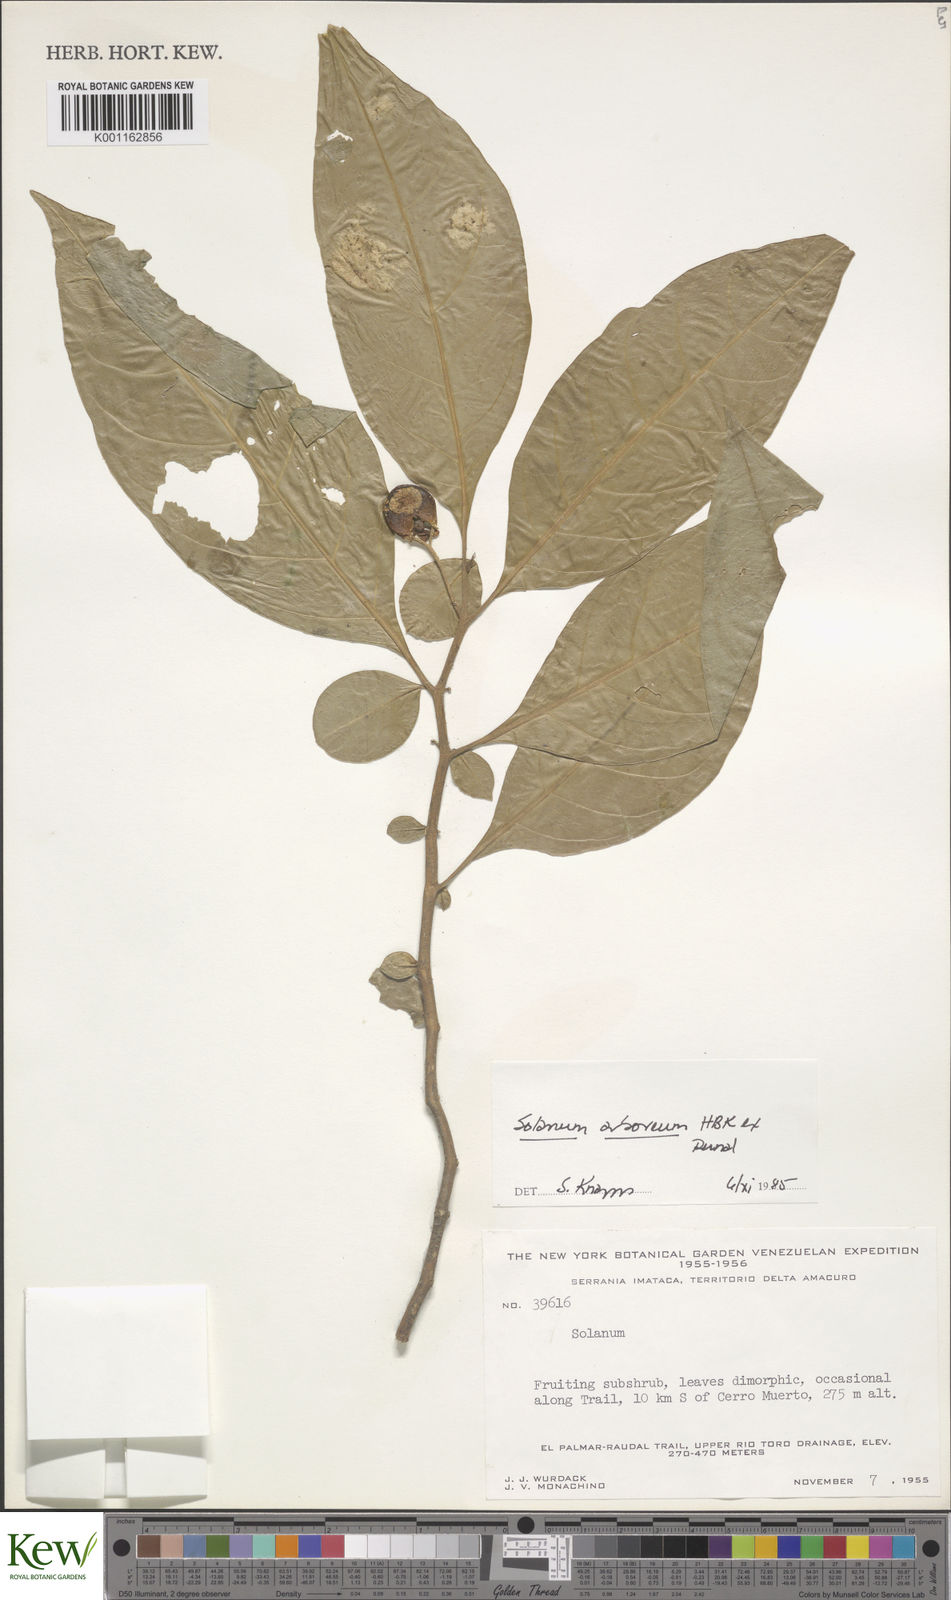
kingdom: Plantae
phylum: Tracheophyta
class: Magnoliopsida
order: Solanales
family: Solanaceae
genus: Solanum
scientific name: Solanum arboreum
